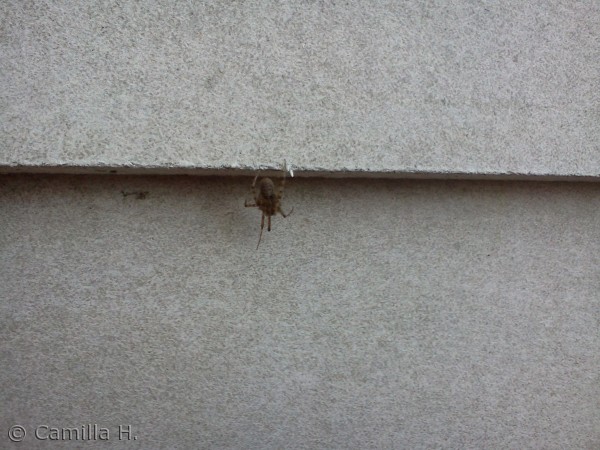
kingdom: Animalia
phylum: Arthropoda
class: Arachnida
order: Araneae
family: Araneidae
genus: Araneus
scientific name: Araneus diadematus
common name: Korsedderkop
